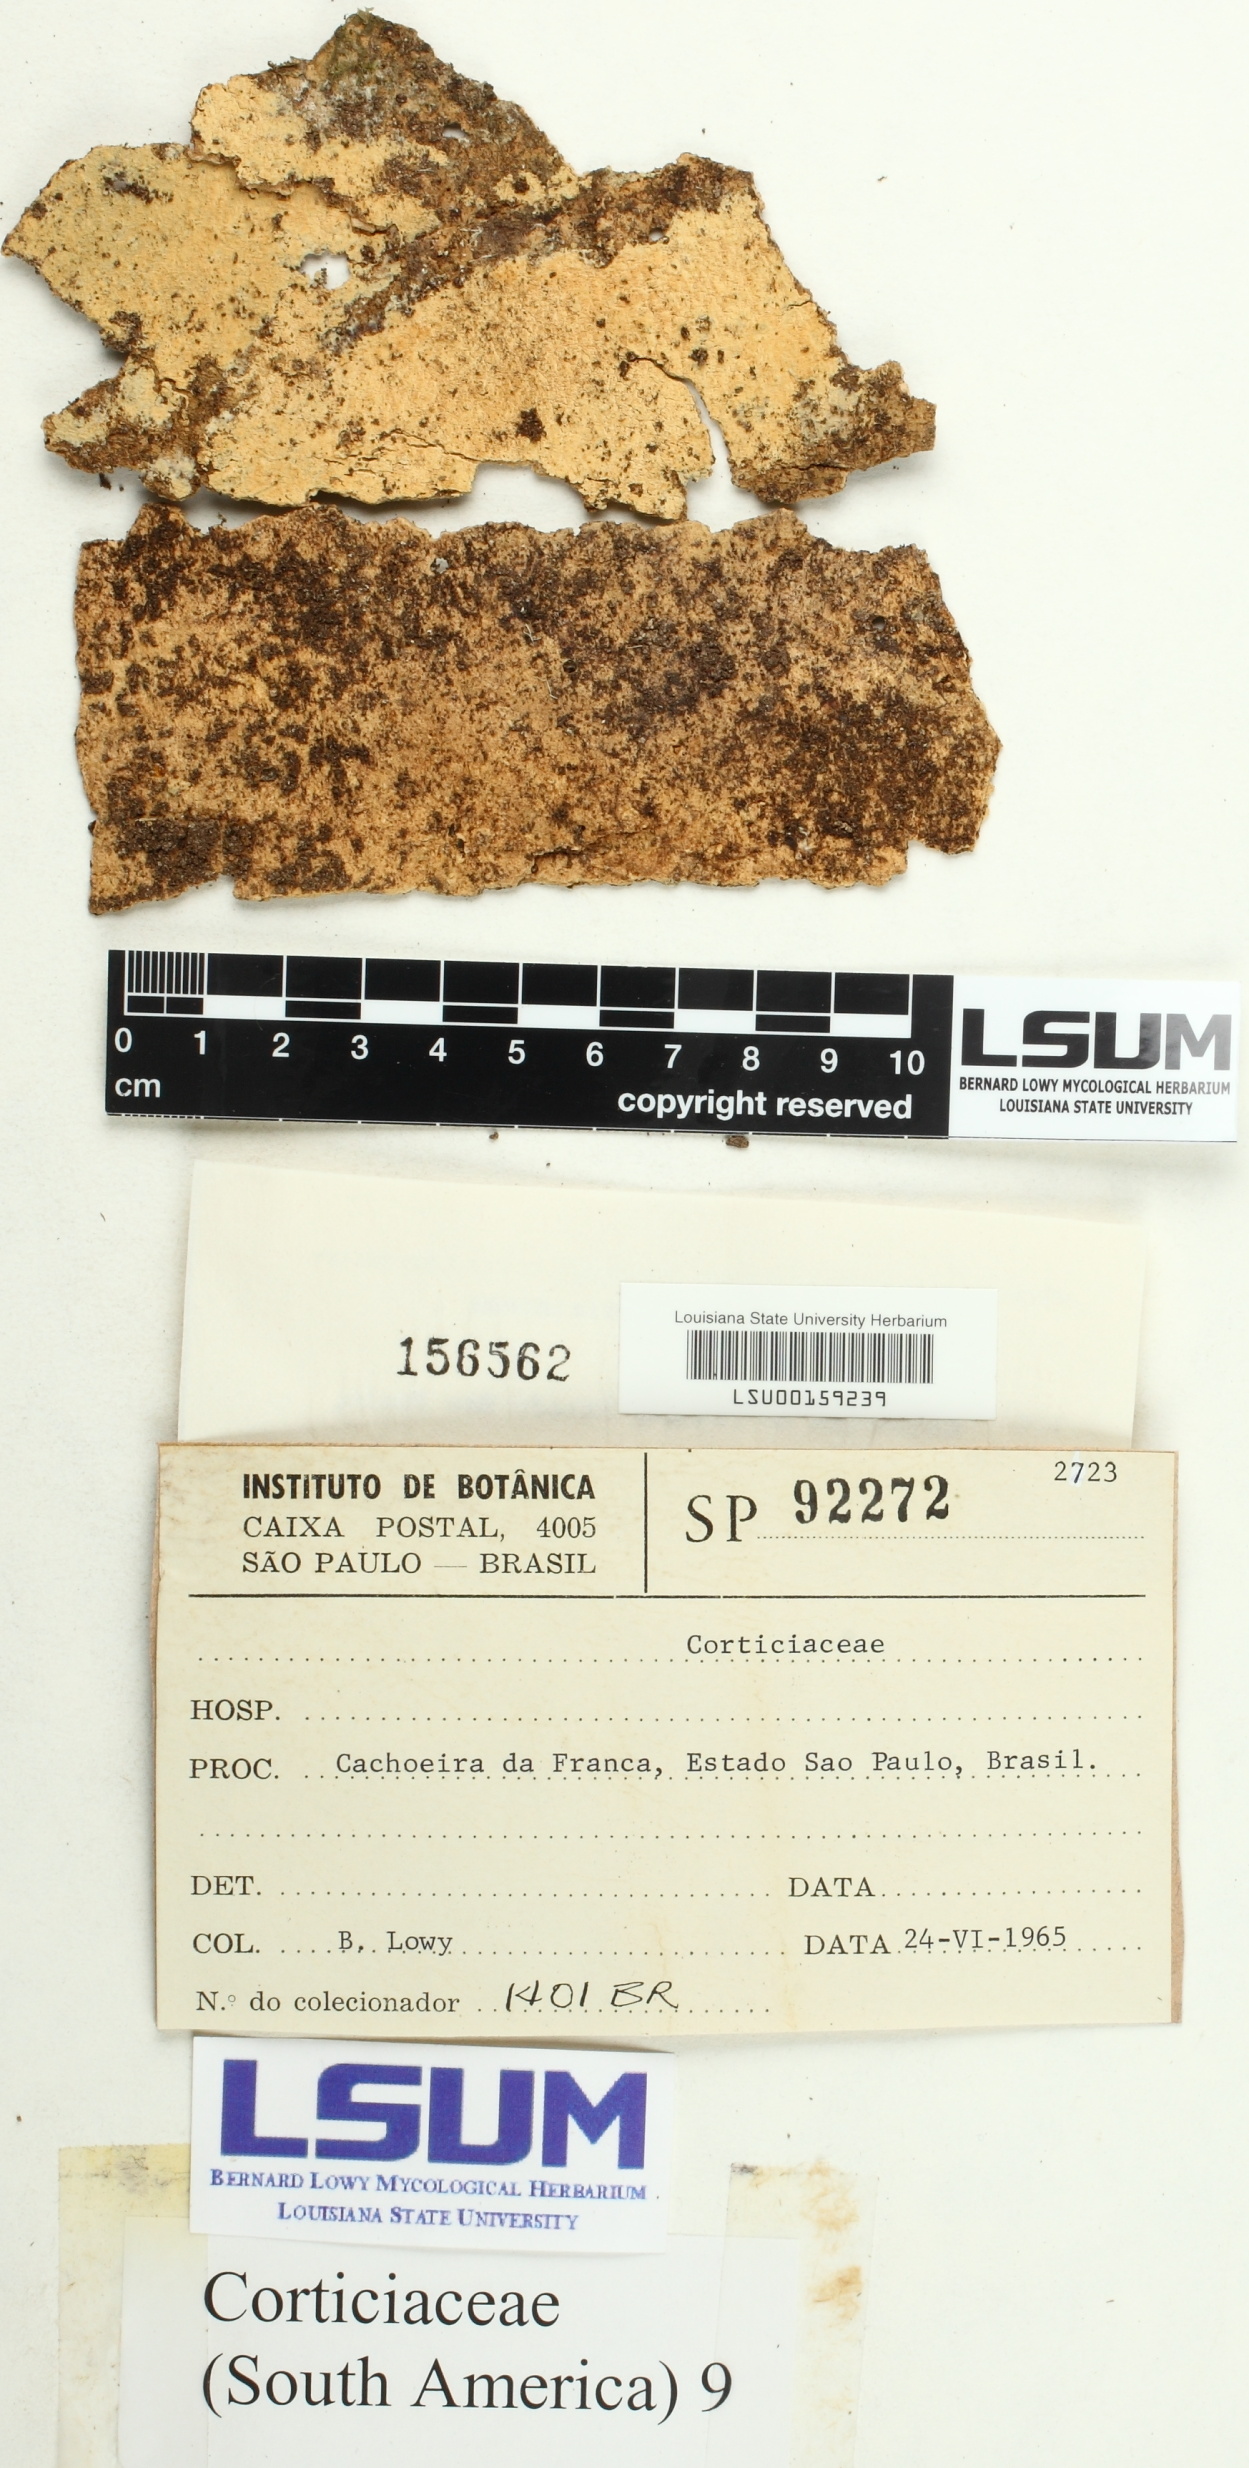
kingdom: Fungi
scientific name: Fungi
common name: Fungi
